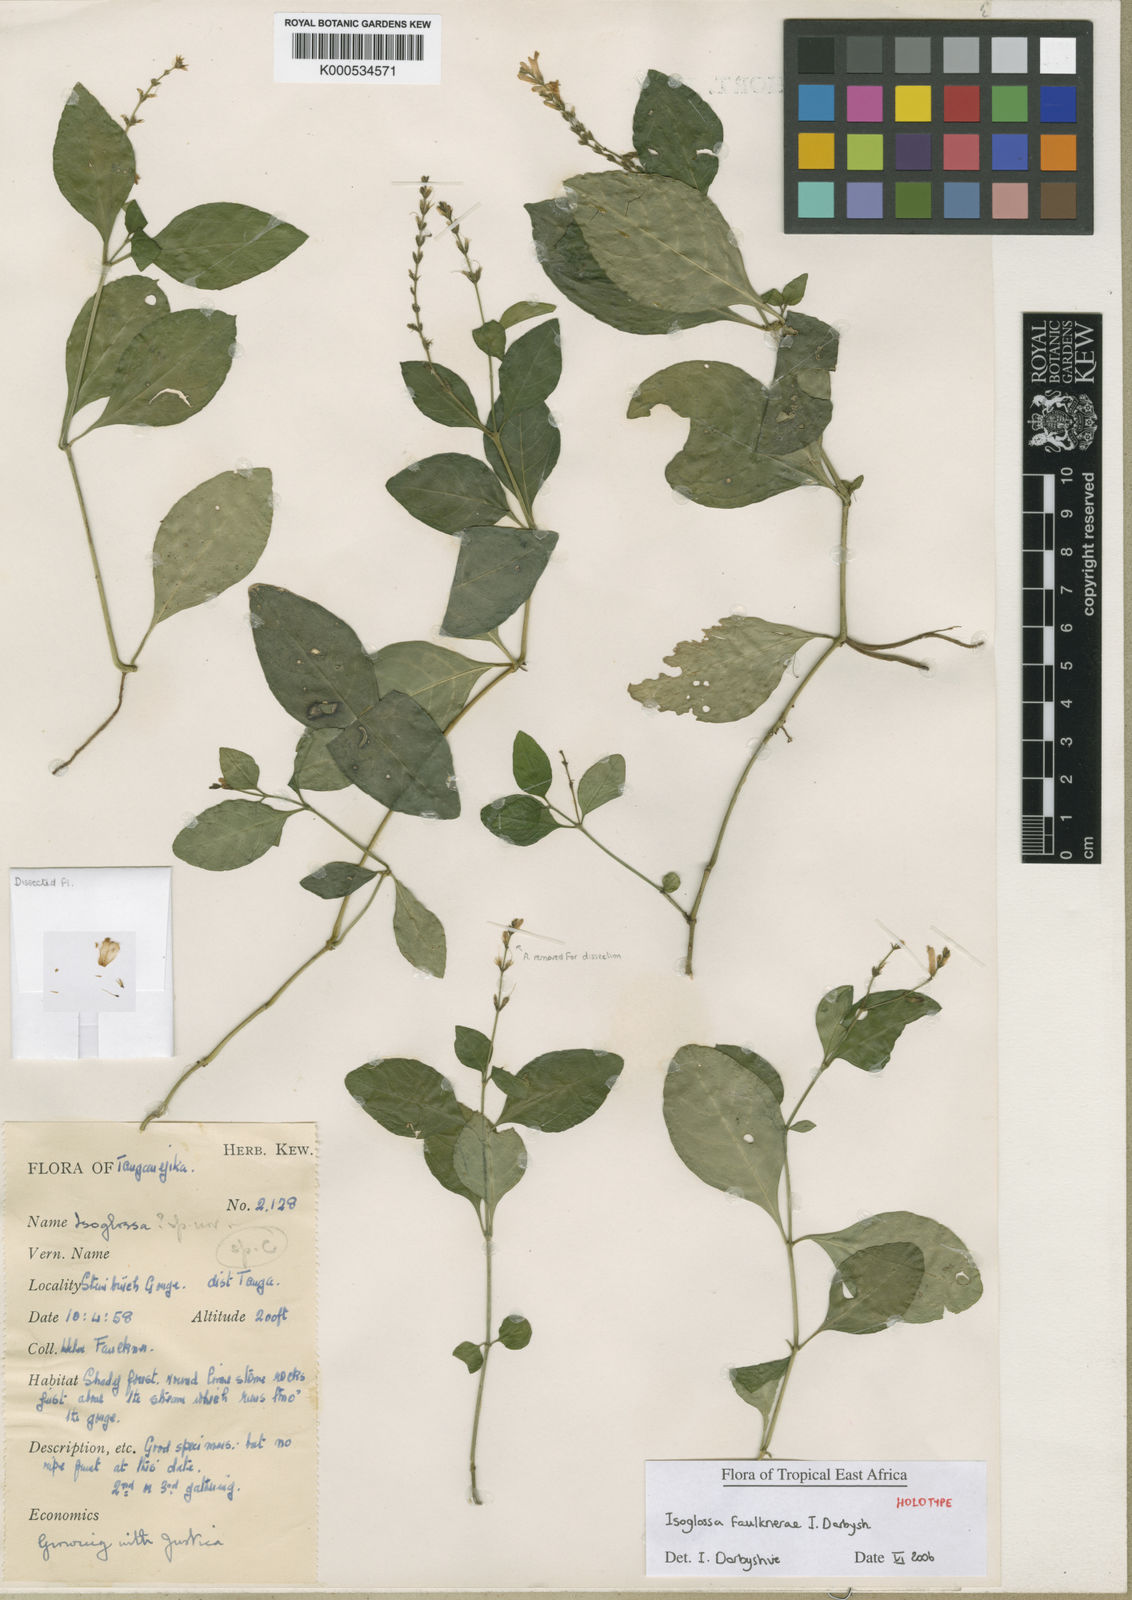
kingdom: Plantae
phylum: Tracheophyta
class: Magnoliopsida
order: Lamiales
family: Acanthaceae
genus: Isoglossa
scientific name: Isoglossa faulknerae
